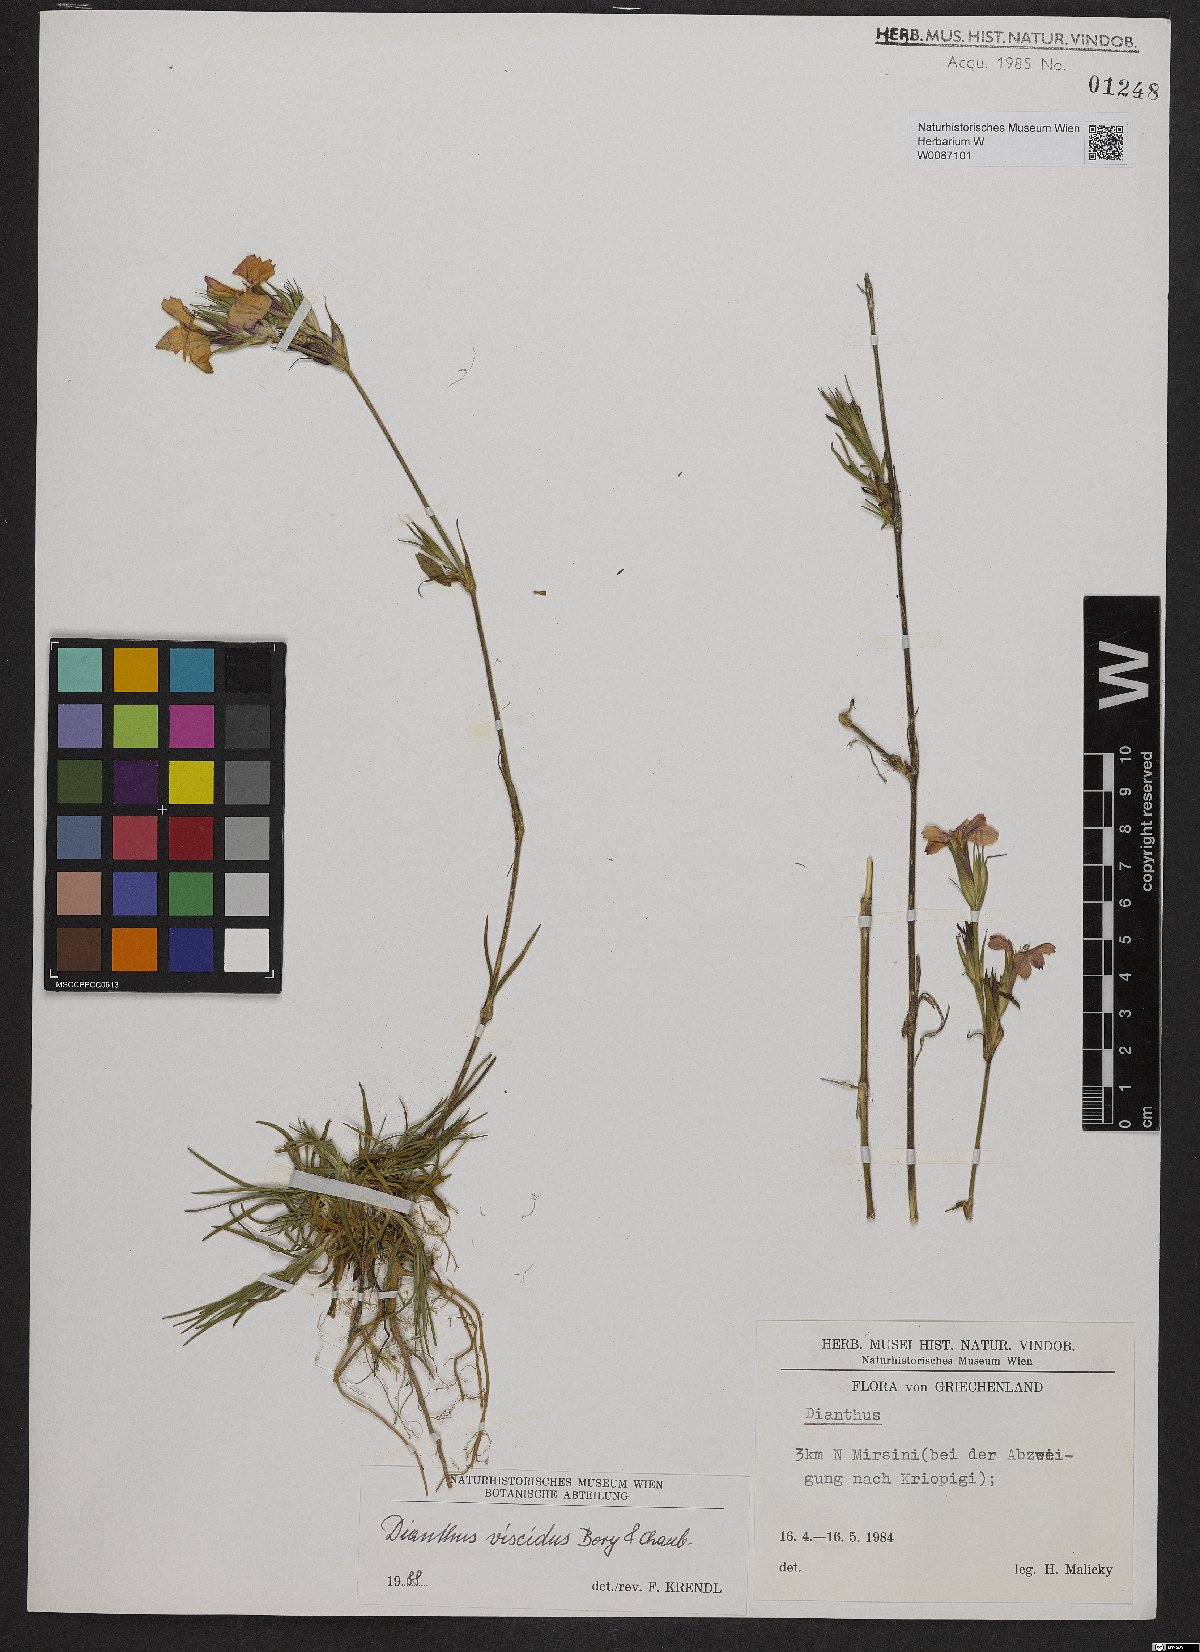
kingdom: Plantae
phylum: Tracheophyta
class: Magnoliopsida
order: Caryophyllales
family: Caryophyllaceae
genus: Dianthus
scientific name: Dianthus viscidus
